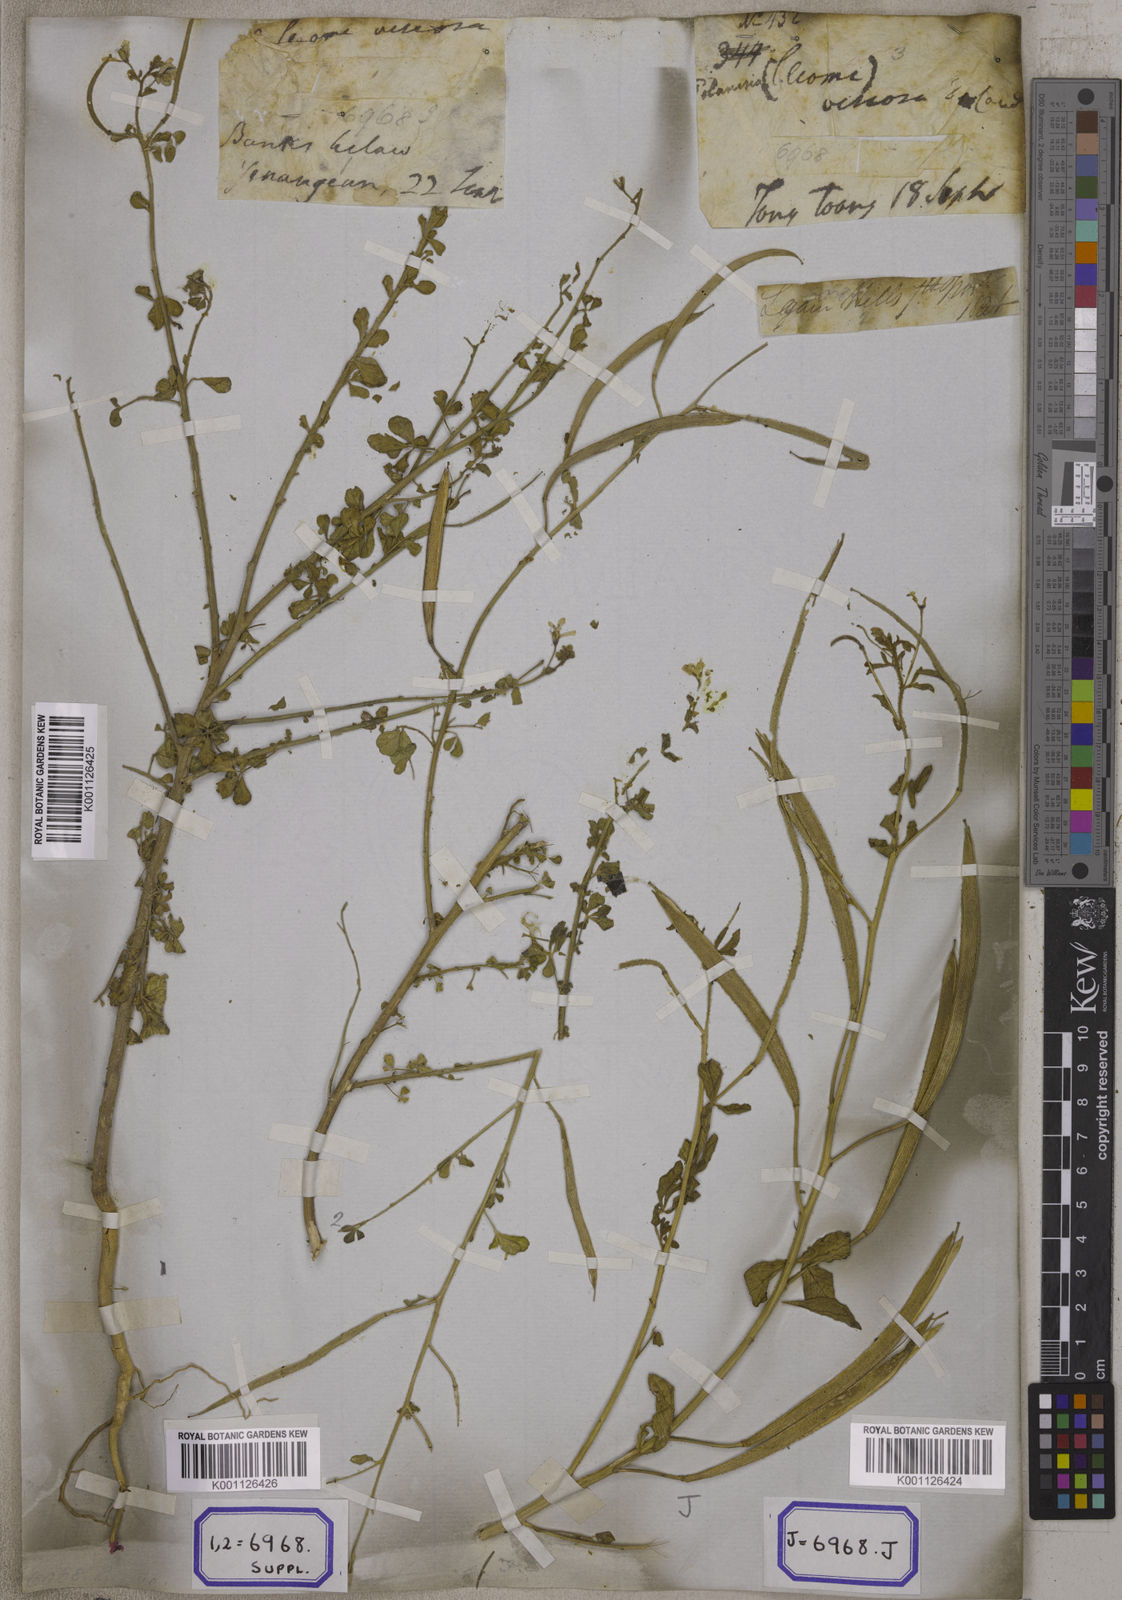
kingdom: Plantae
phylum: Tracheophyta
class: Magnoliopsida
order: Brassicales
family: Cleomaceae
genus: Arivela
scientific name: Arivela viscosa
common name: Asian spiderflower
